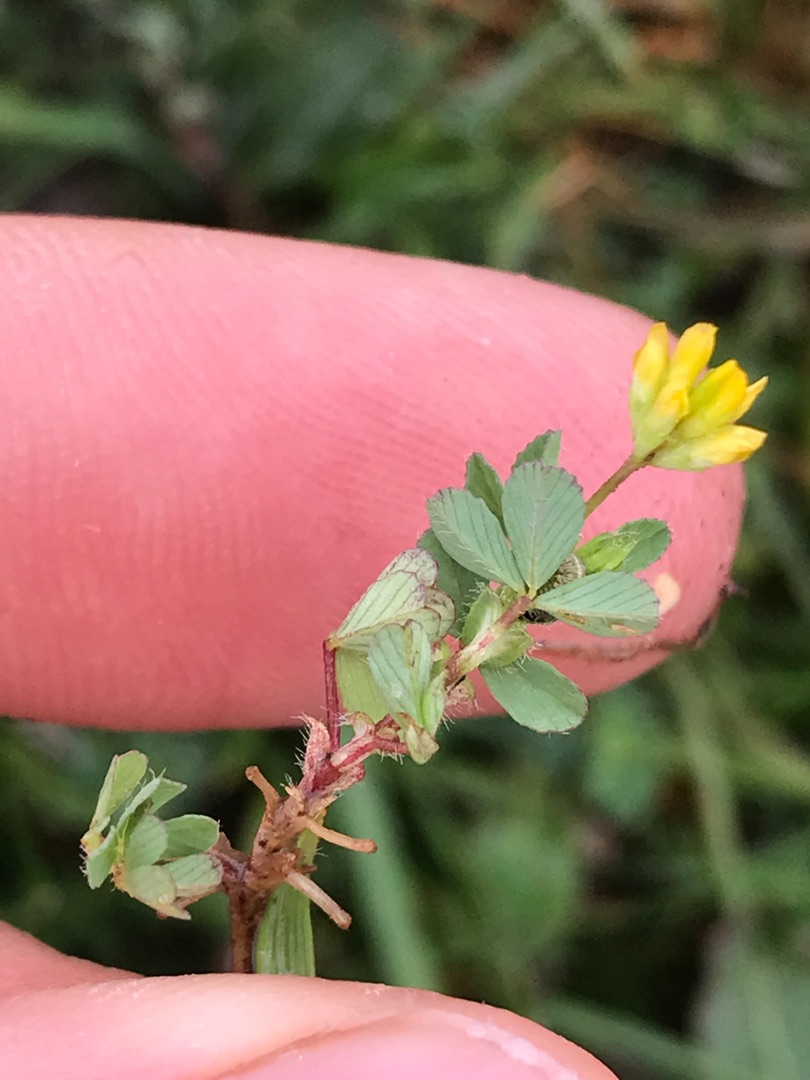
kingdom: Plantae
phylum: Tracheophyta
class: Magnoliopsida
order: Fabales
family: Fabaceae
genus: Trifolium
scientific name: Trifolium dubium
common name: Fin kløver
